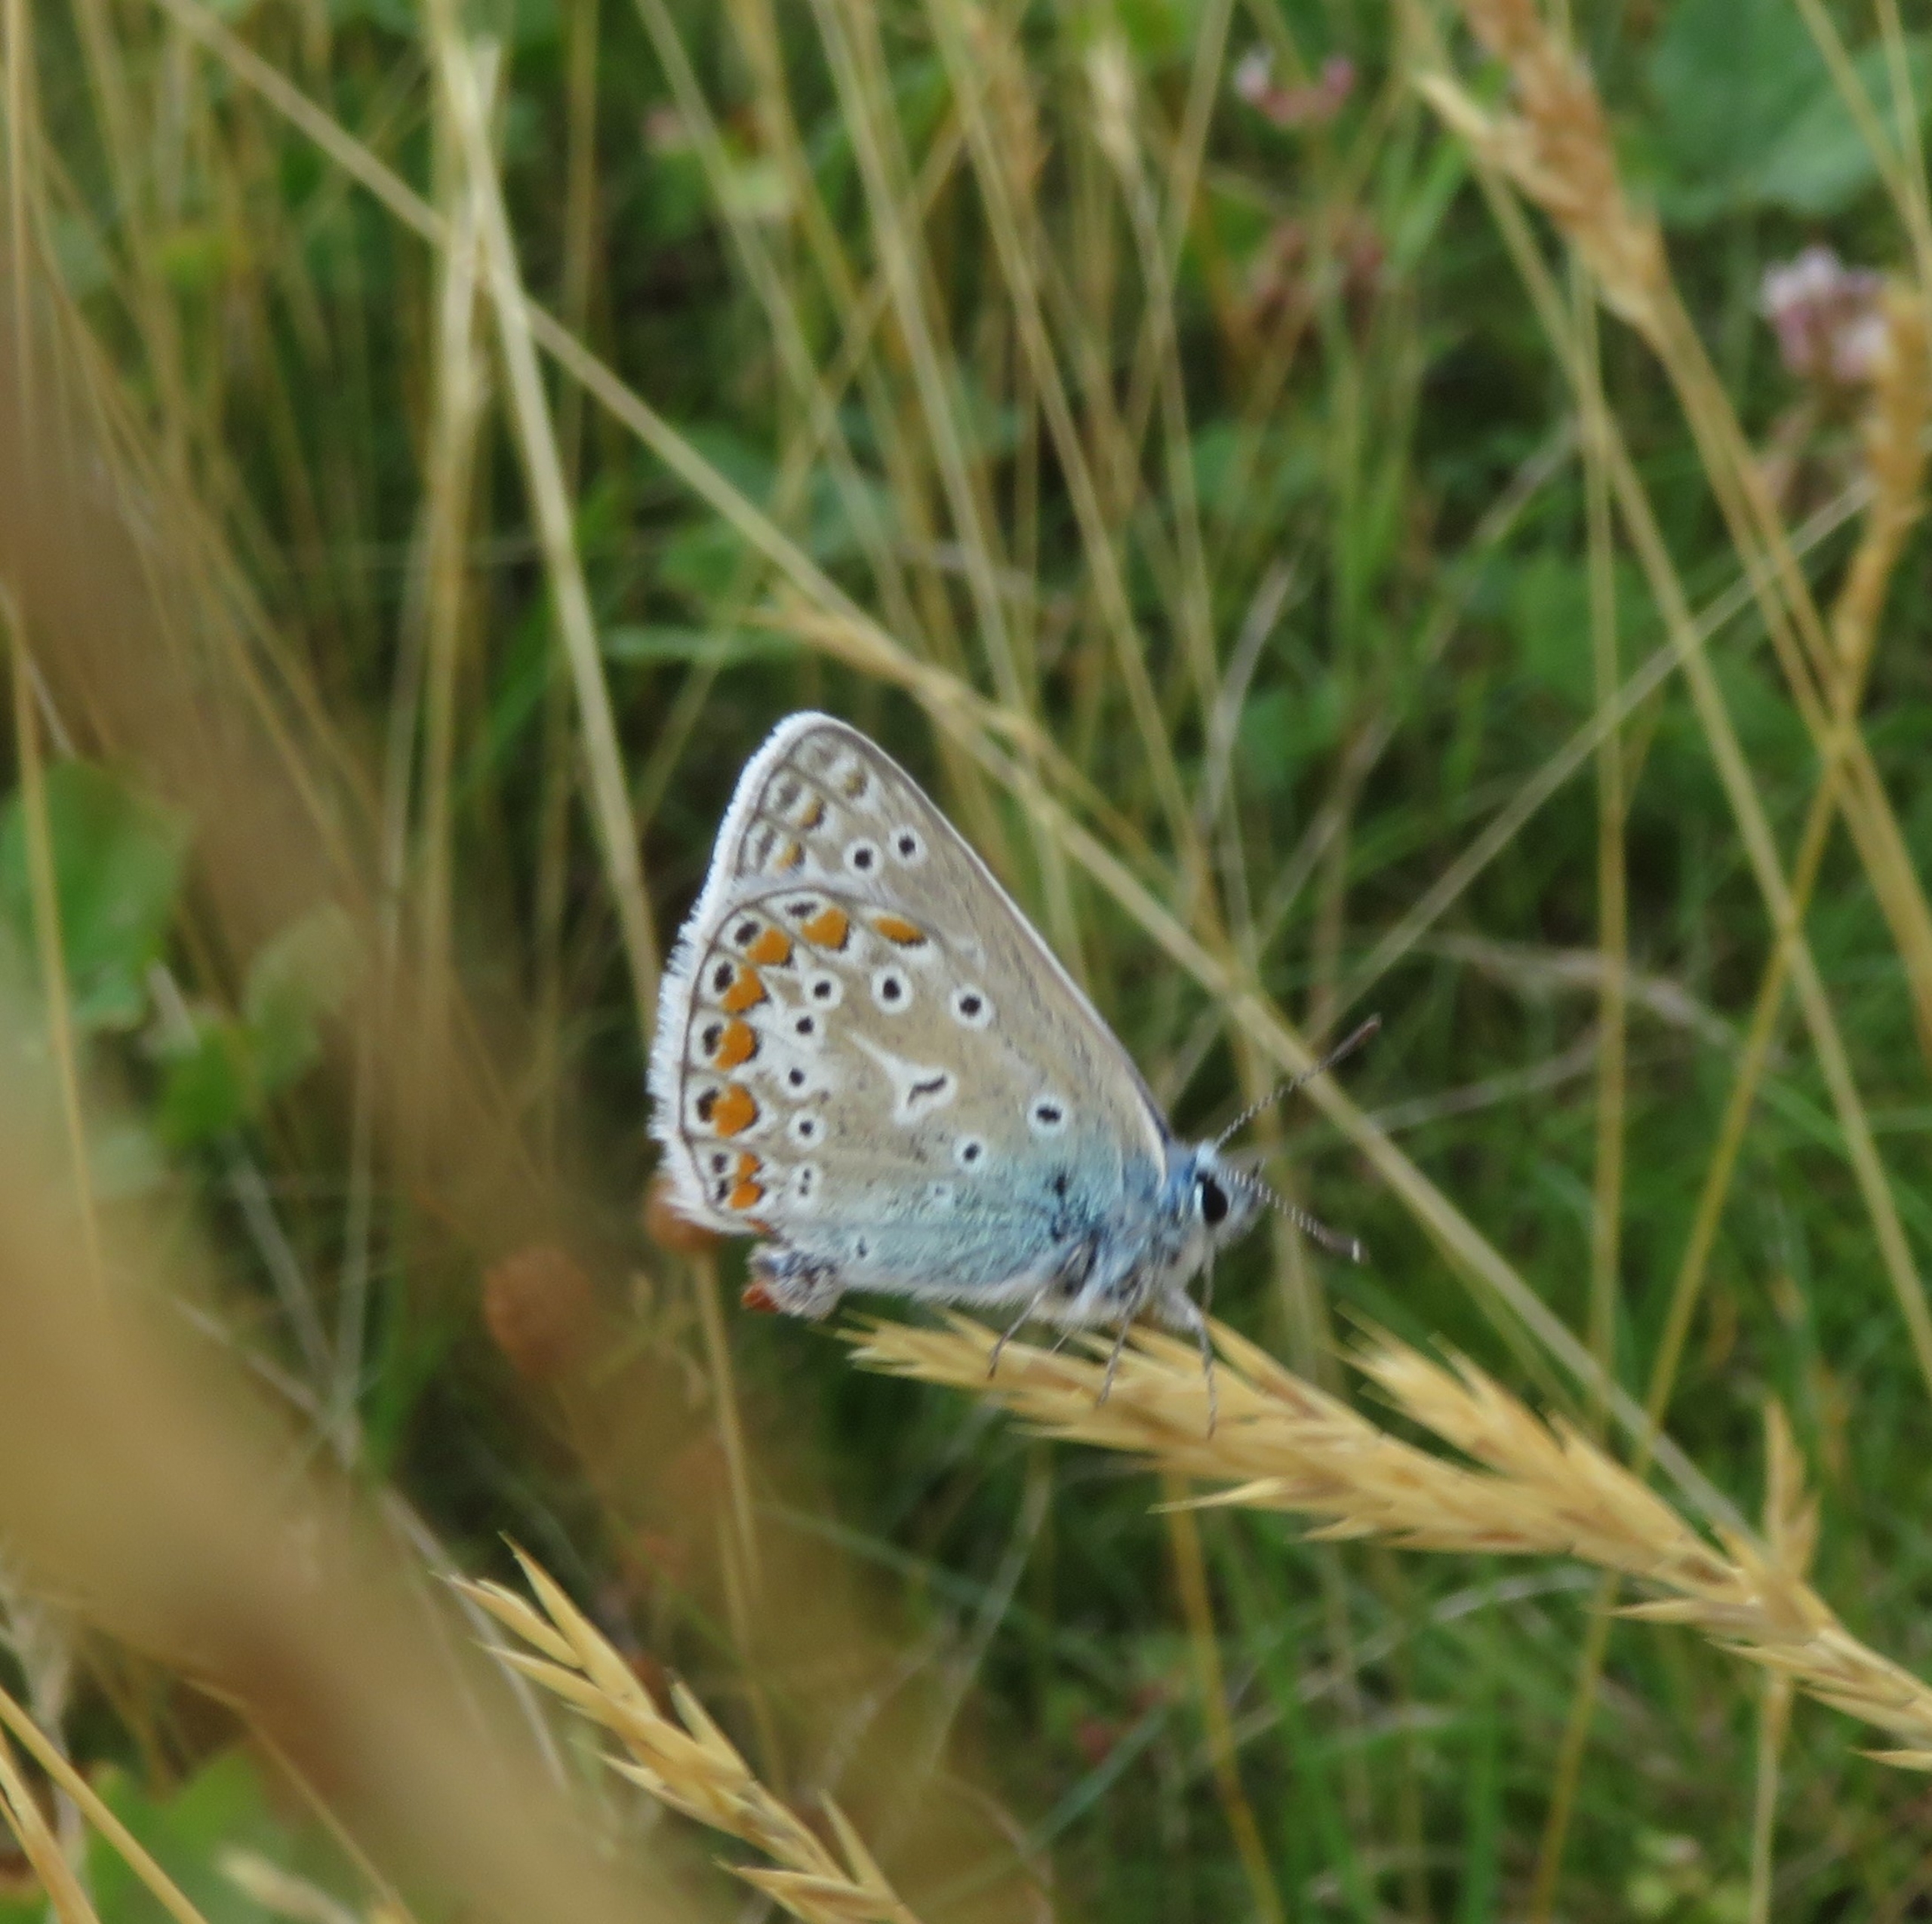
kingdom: Animalia
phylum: Arthropoda
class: Insecta
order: Lepidoptera
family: Lycaenidae
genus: Polyommatus
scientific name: Polyommatus icarus
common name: Almindelig blåfugl
